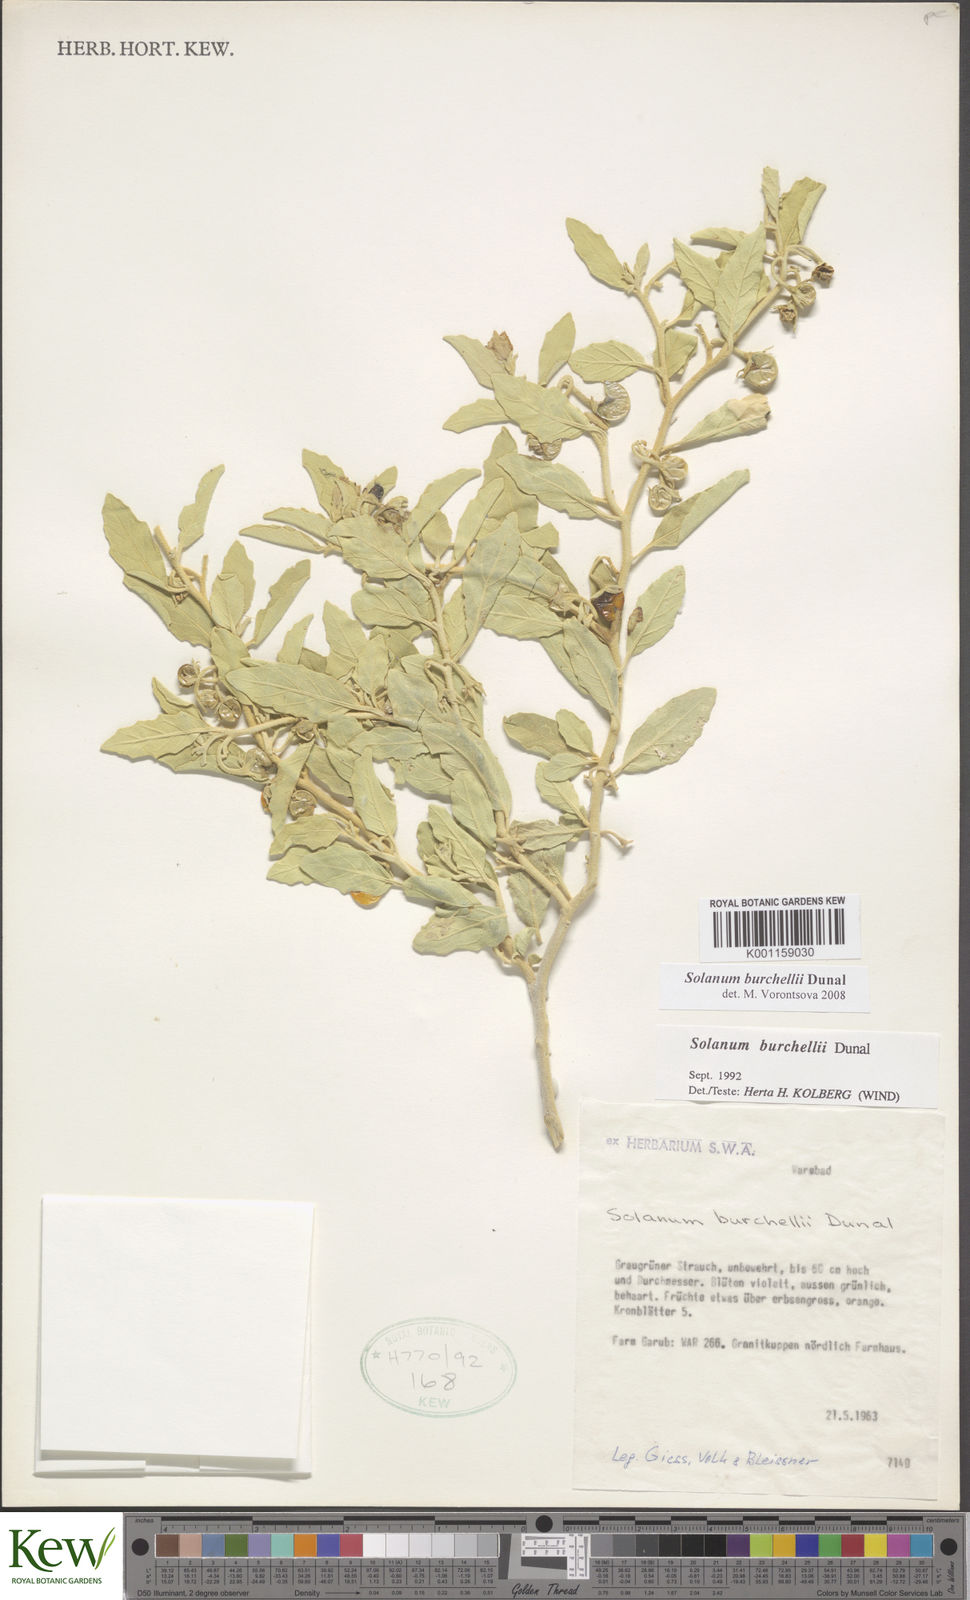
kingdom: Plantae
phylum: Tracheophyta
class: Magnoliopsida
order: Solanales
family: Solanaceae
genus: Solanum
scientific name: Solanum burchellii
